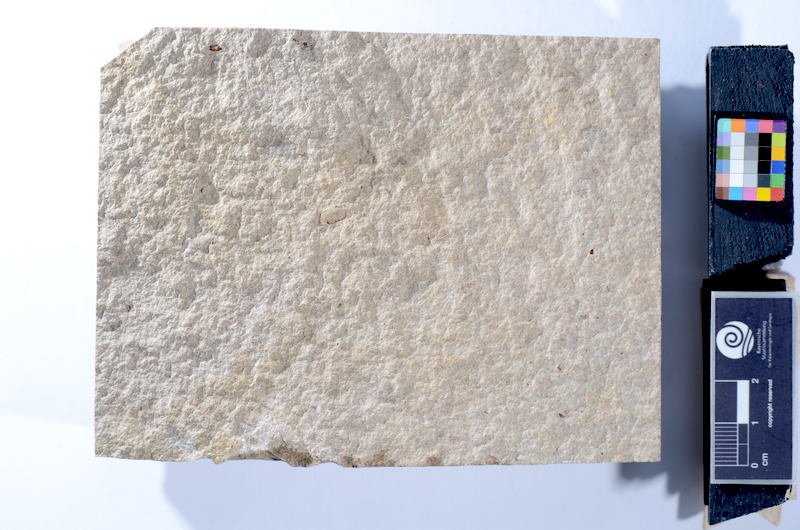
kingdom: Animalia
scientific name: Animalia
